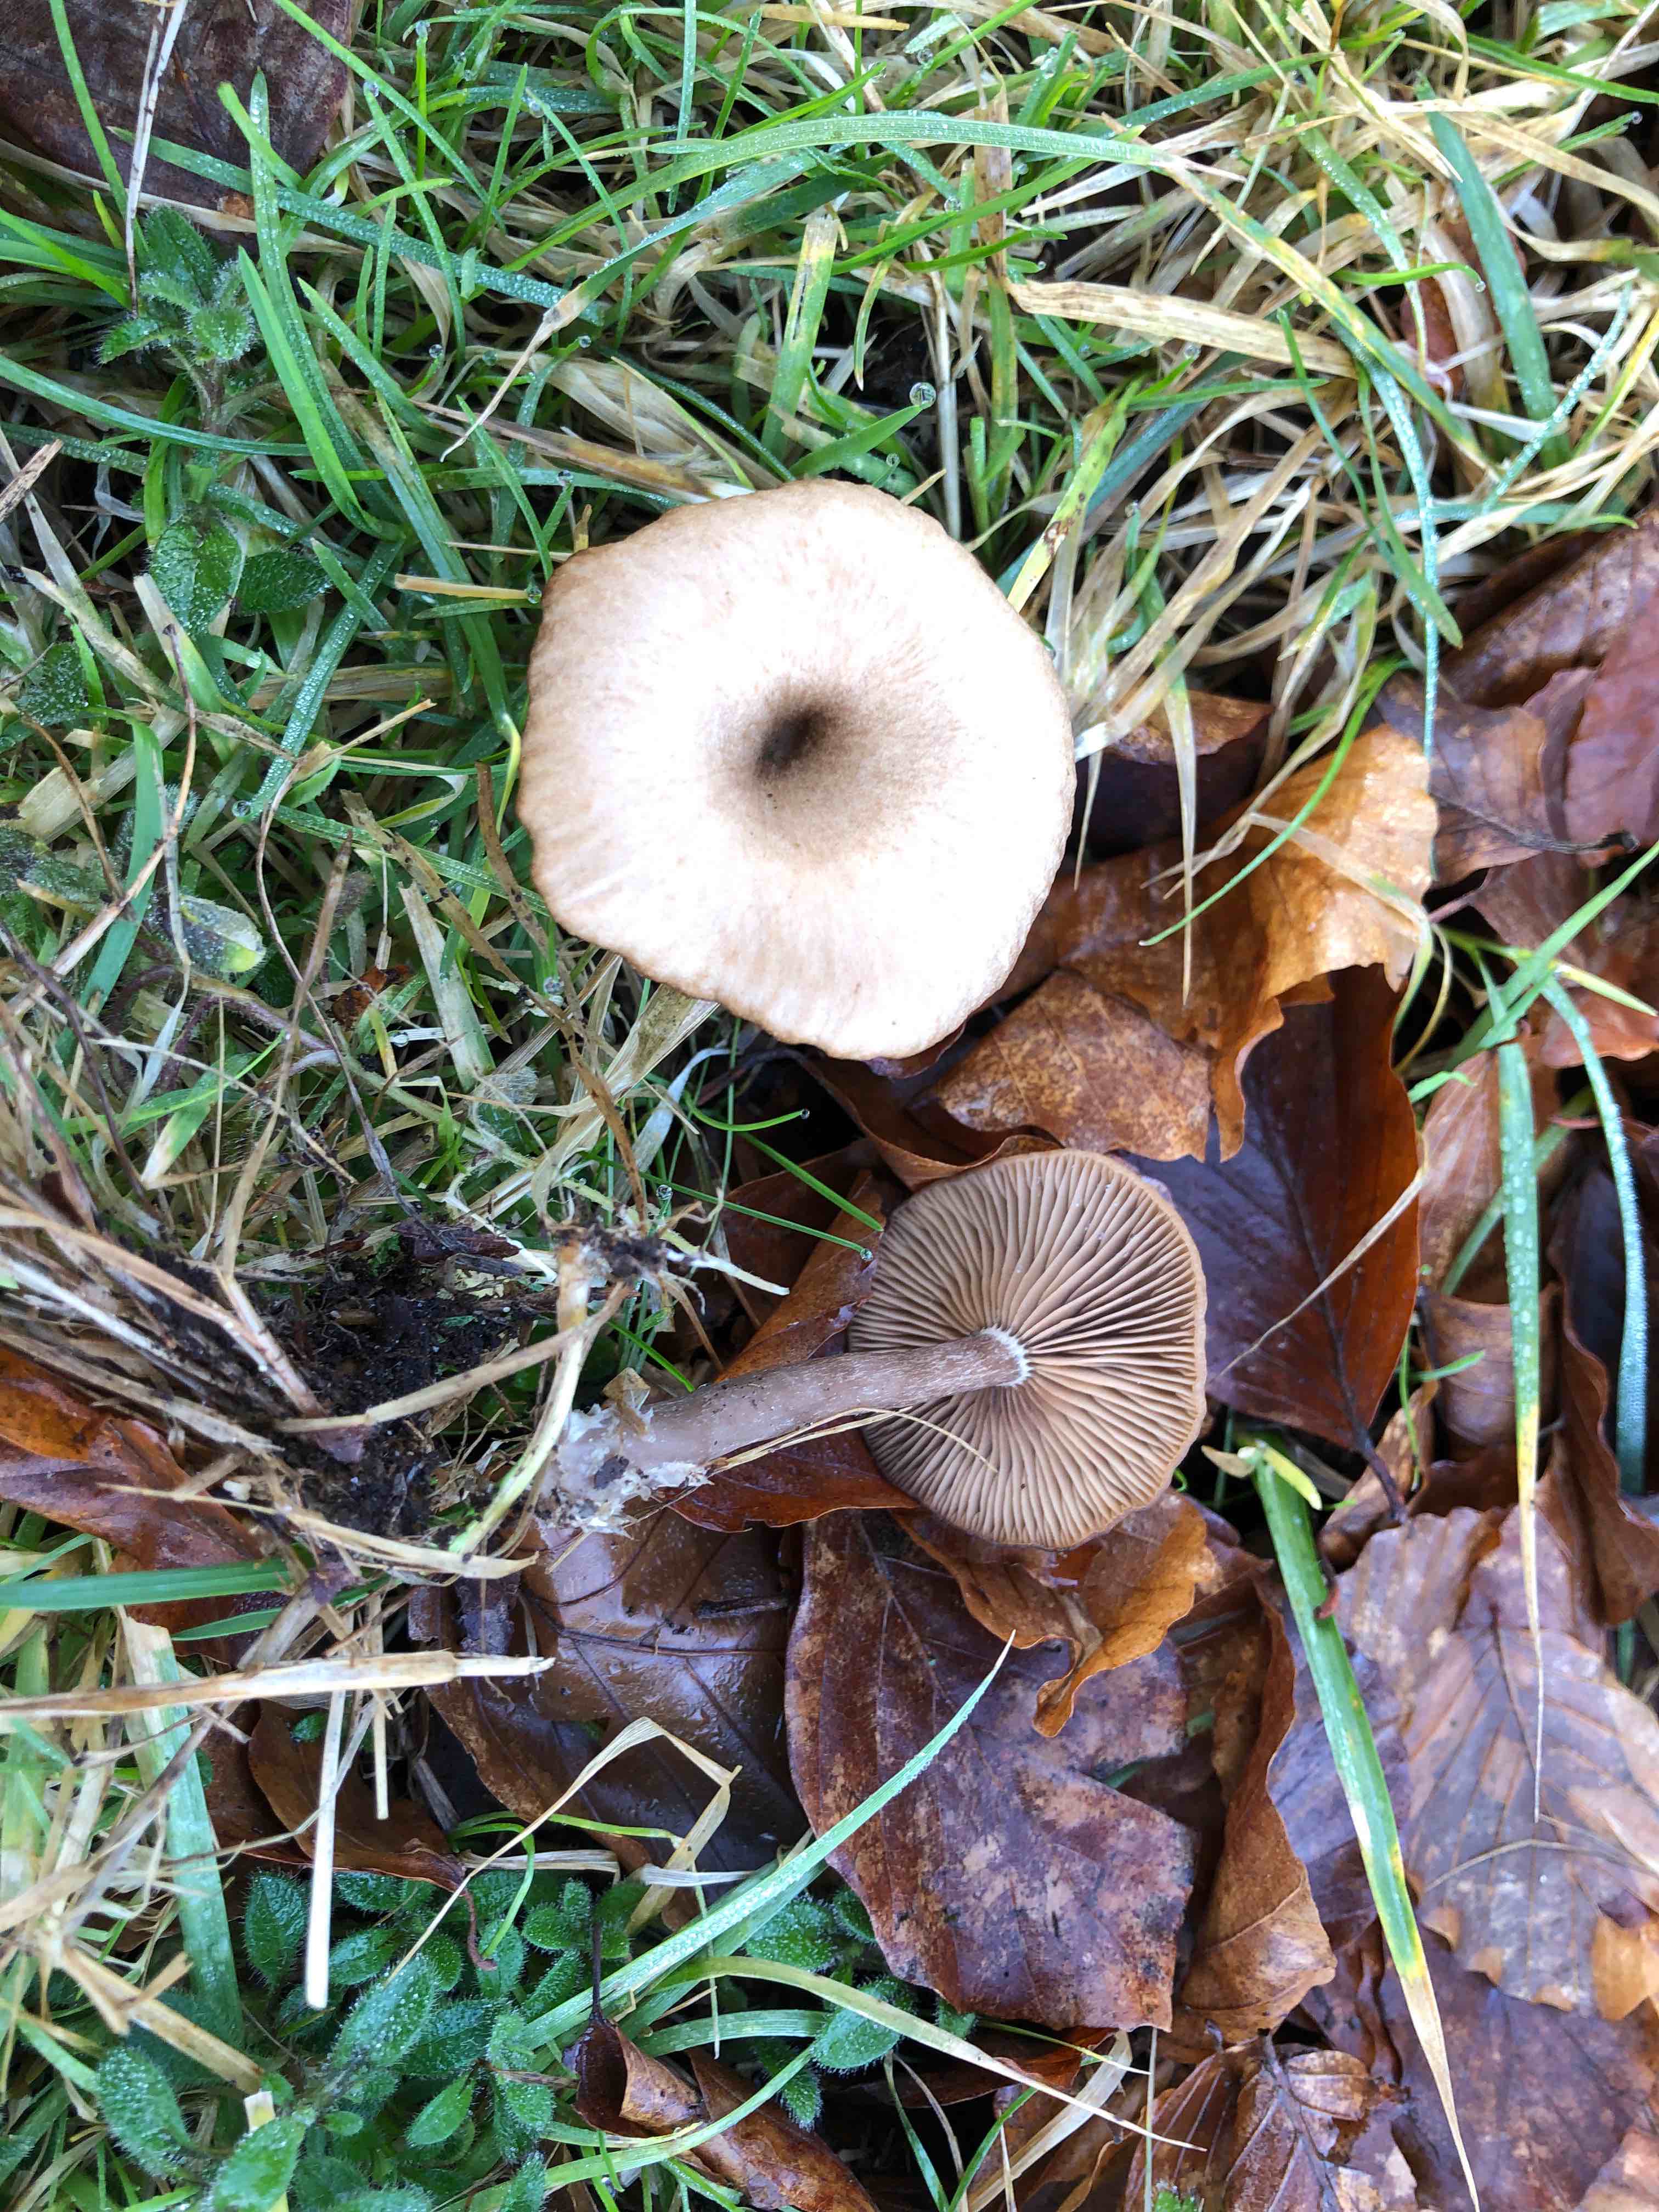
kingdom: Fungi
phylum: Basidiomycota
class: Agaricomycetes
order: Agaricales
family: Pseudoclitocybaceae
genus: Pseudoclitocybe
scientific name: Pseudoclitocybe cyathiformis
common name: almindelig bægertragthat
